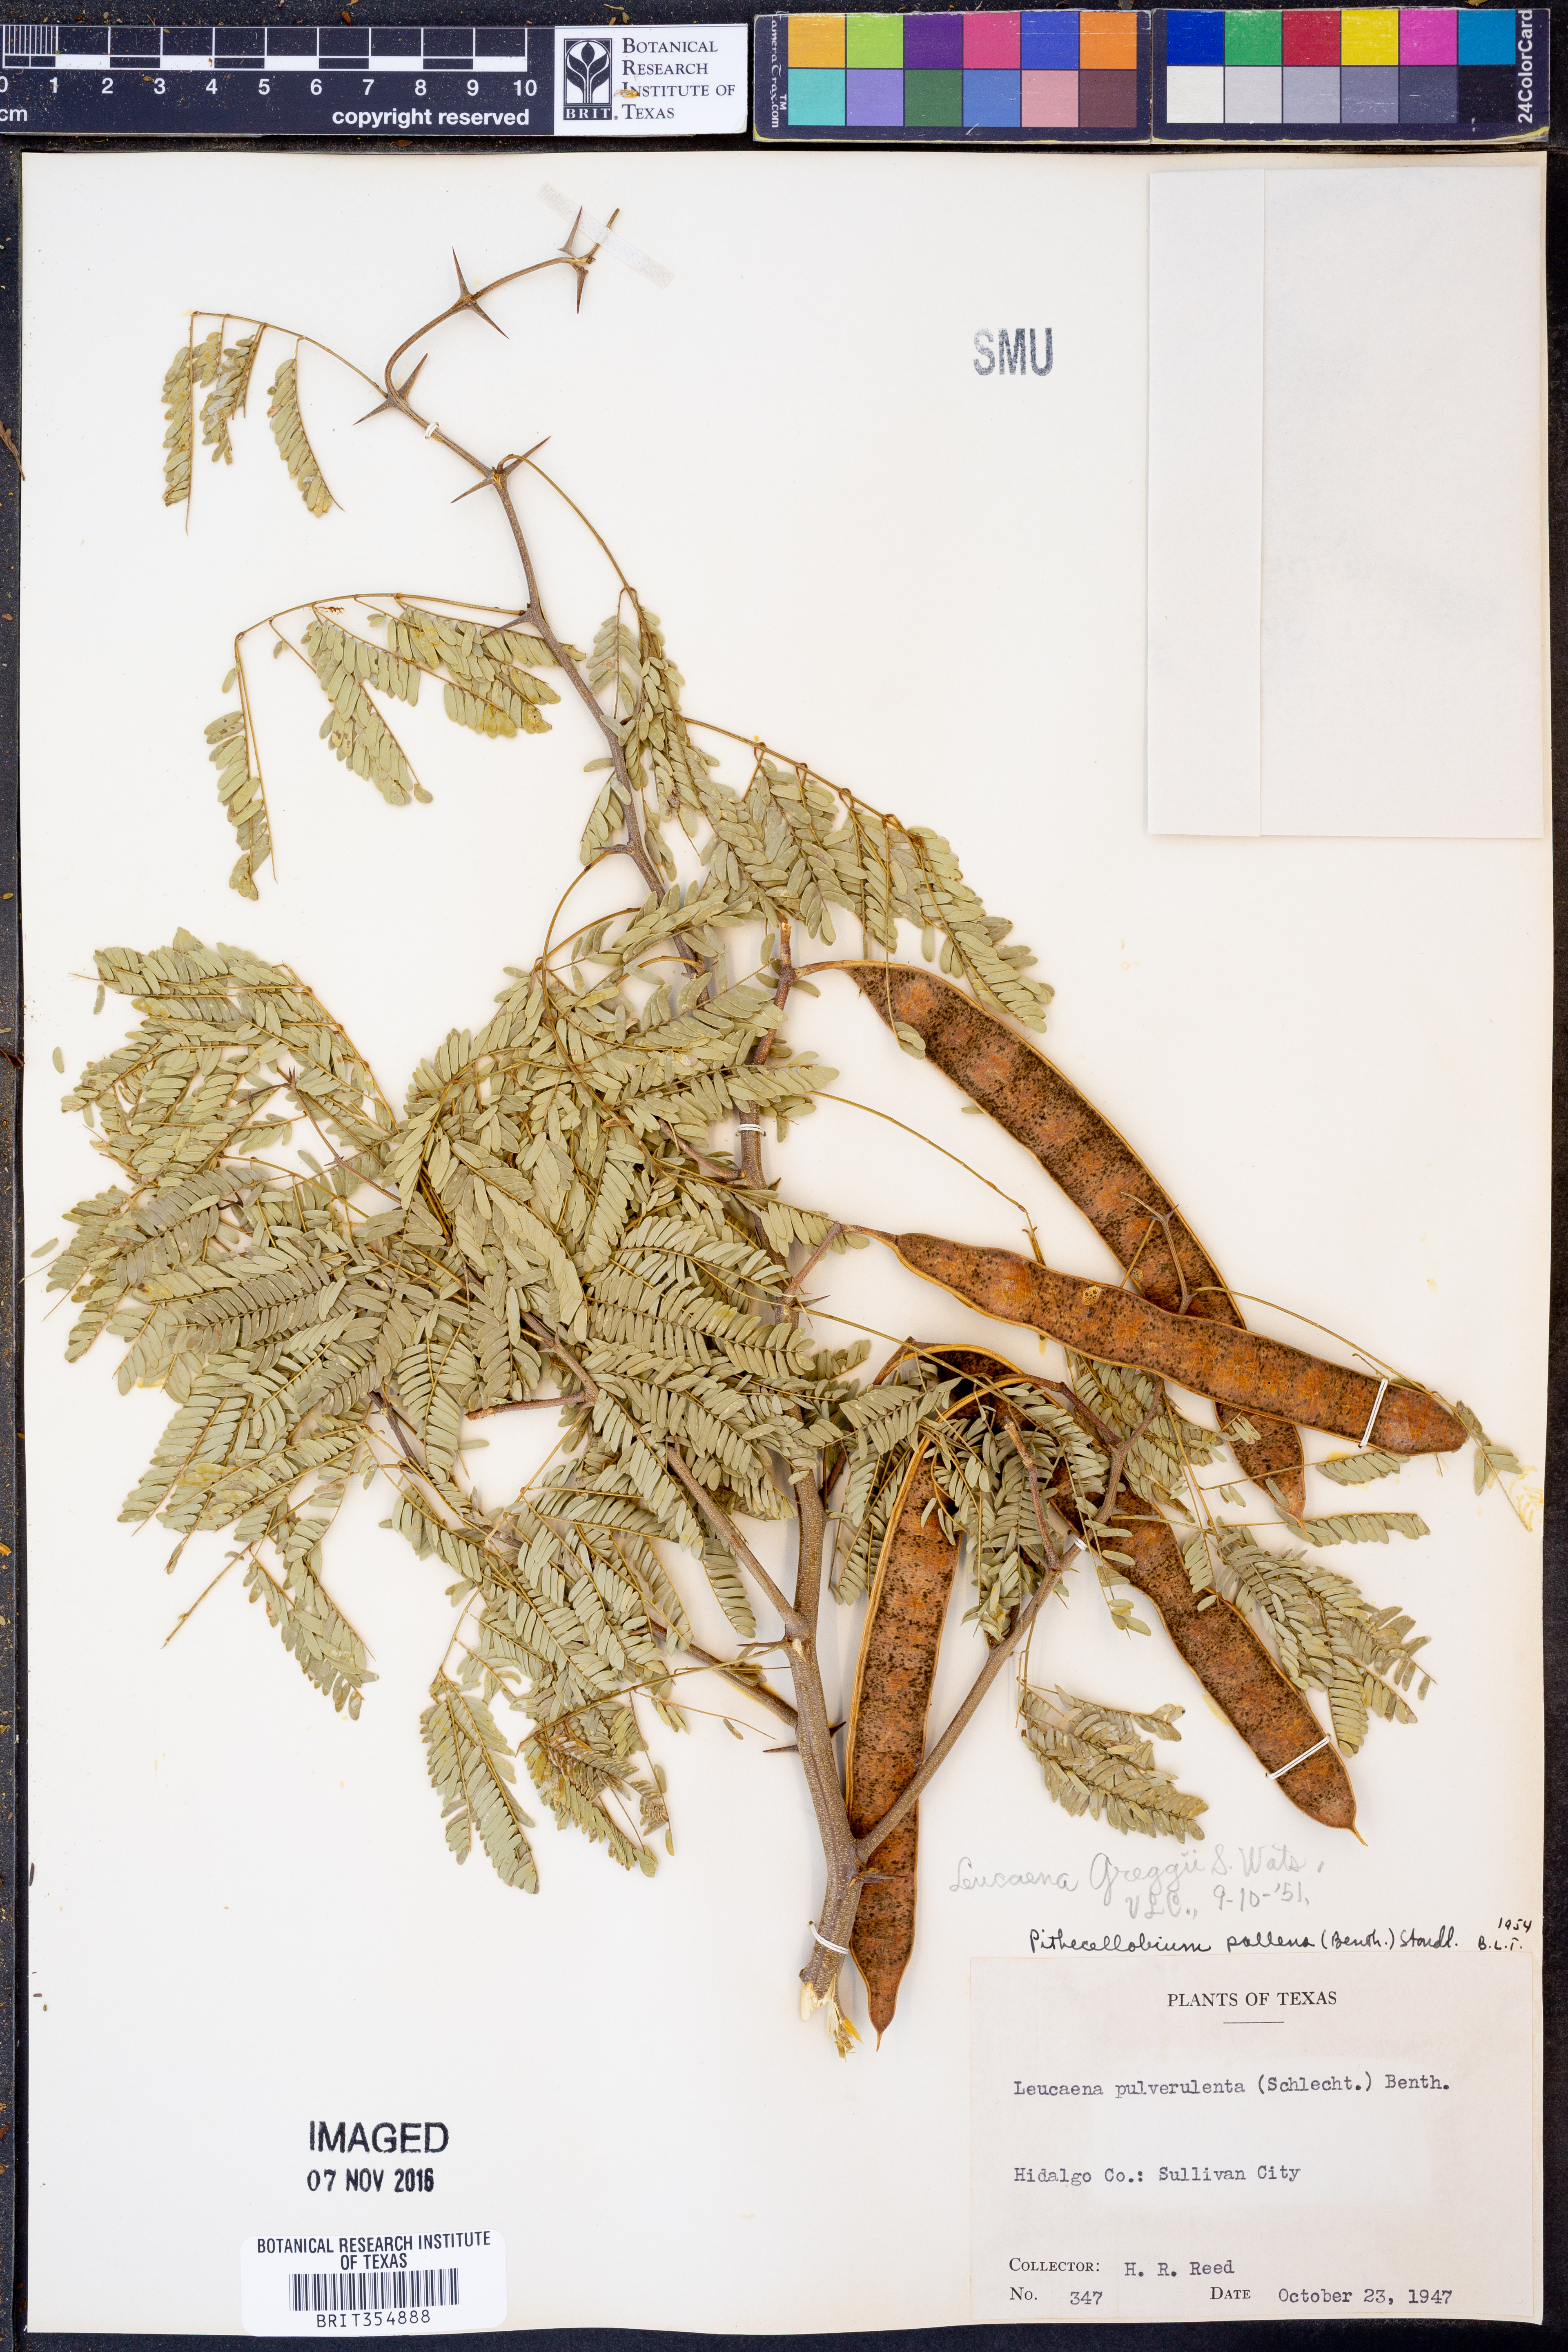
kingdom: Plantae
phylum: Tracheophyta
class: Magnoliopsida
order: Fabales
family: Fabaceae
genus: Havardia
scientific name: Havardia pallens
